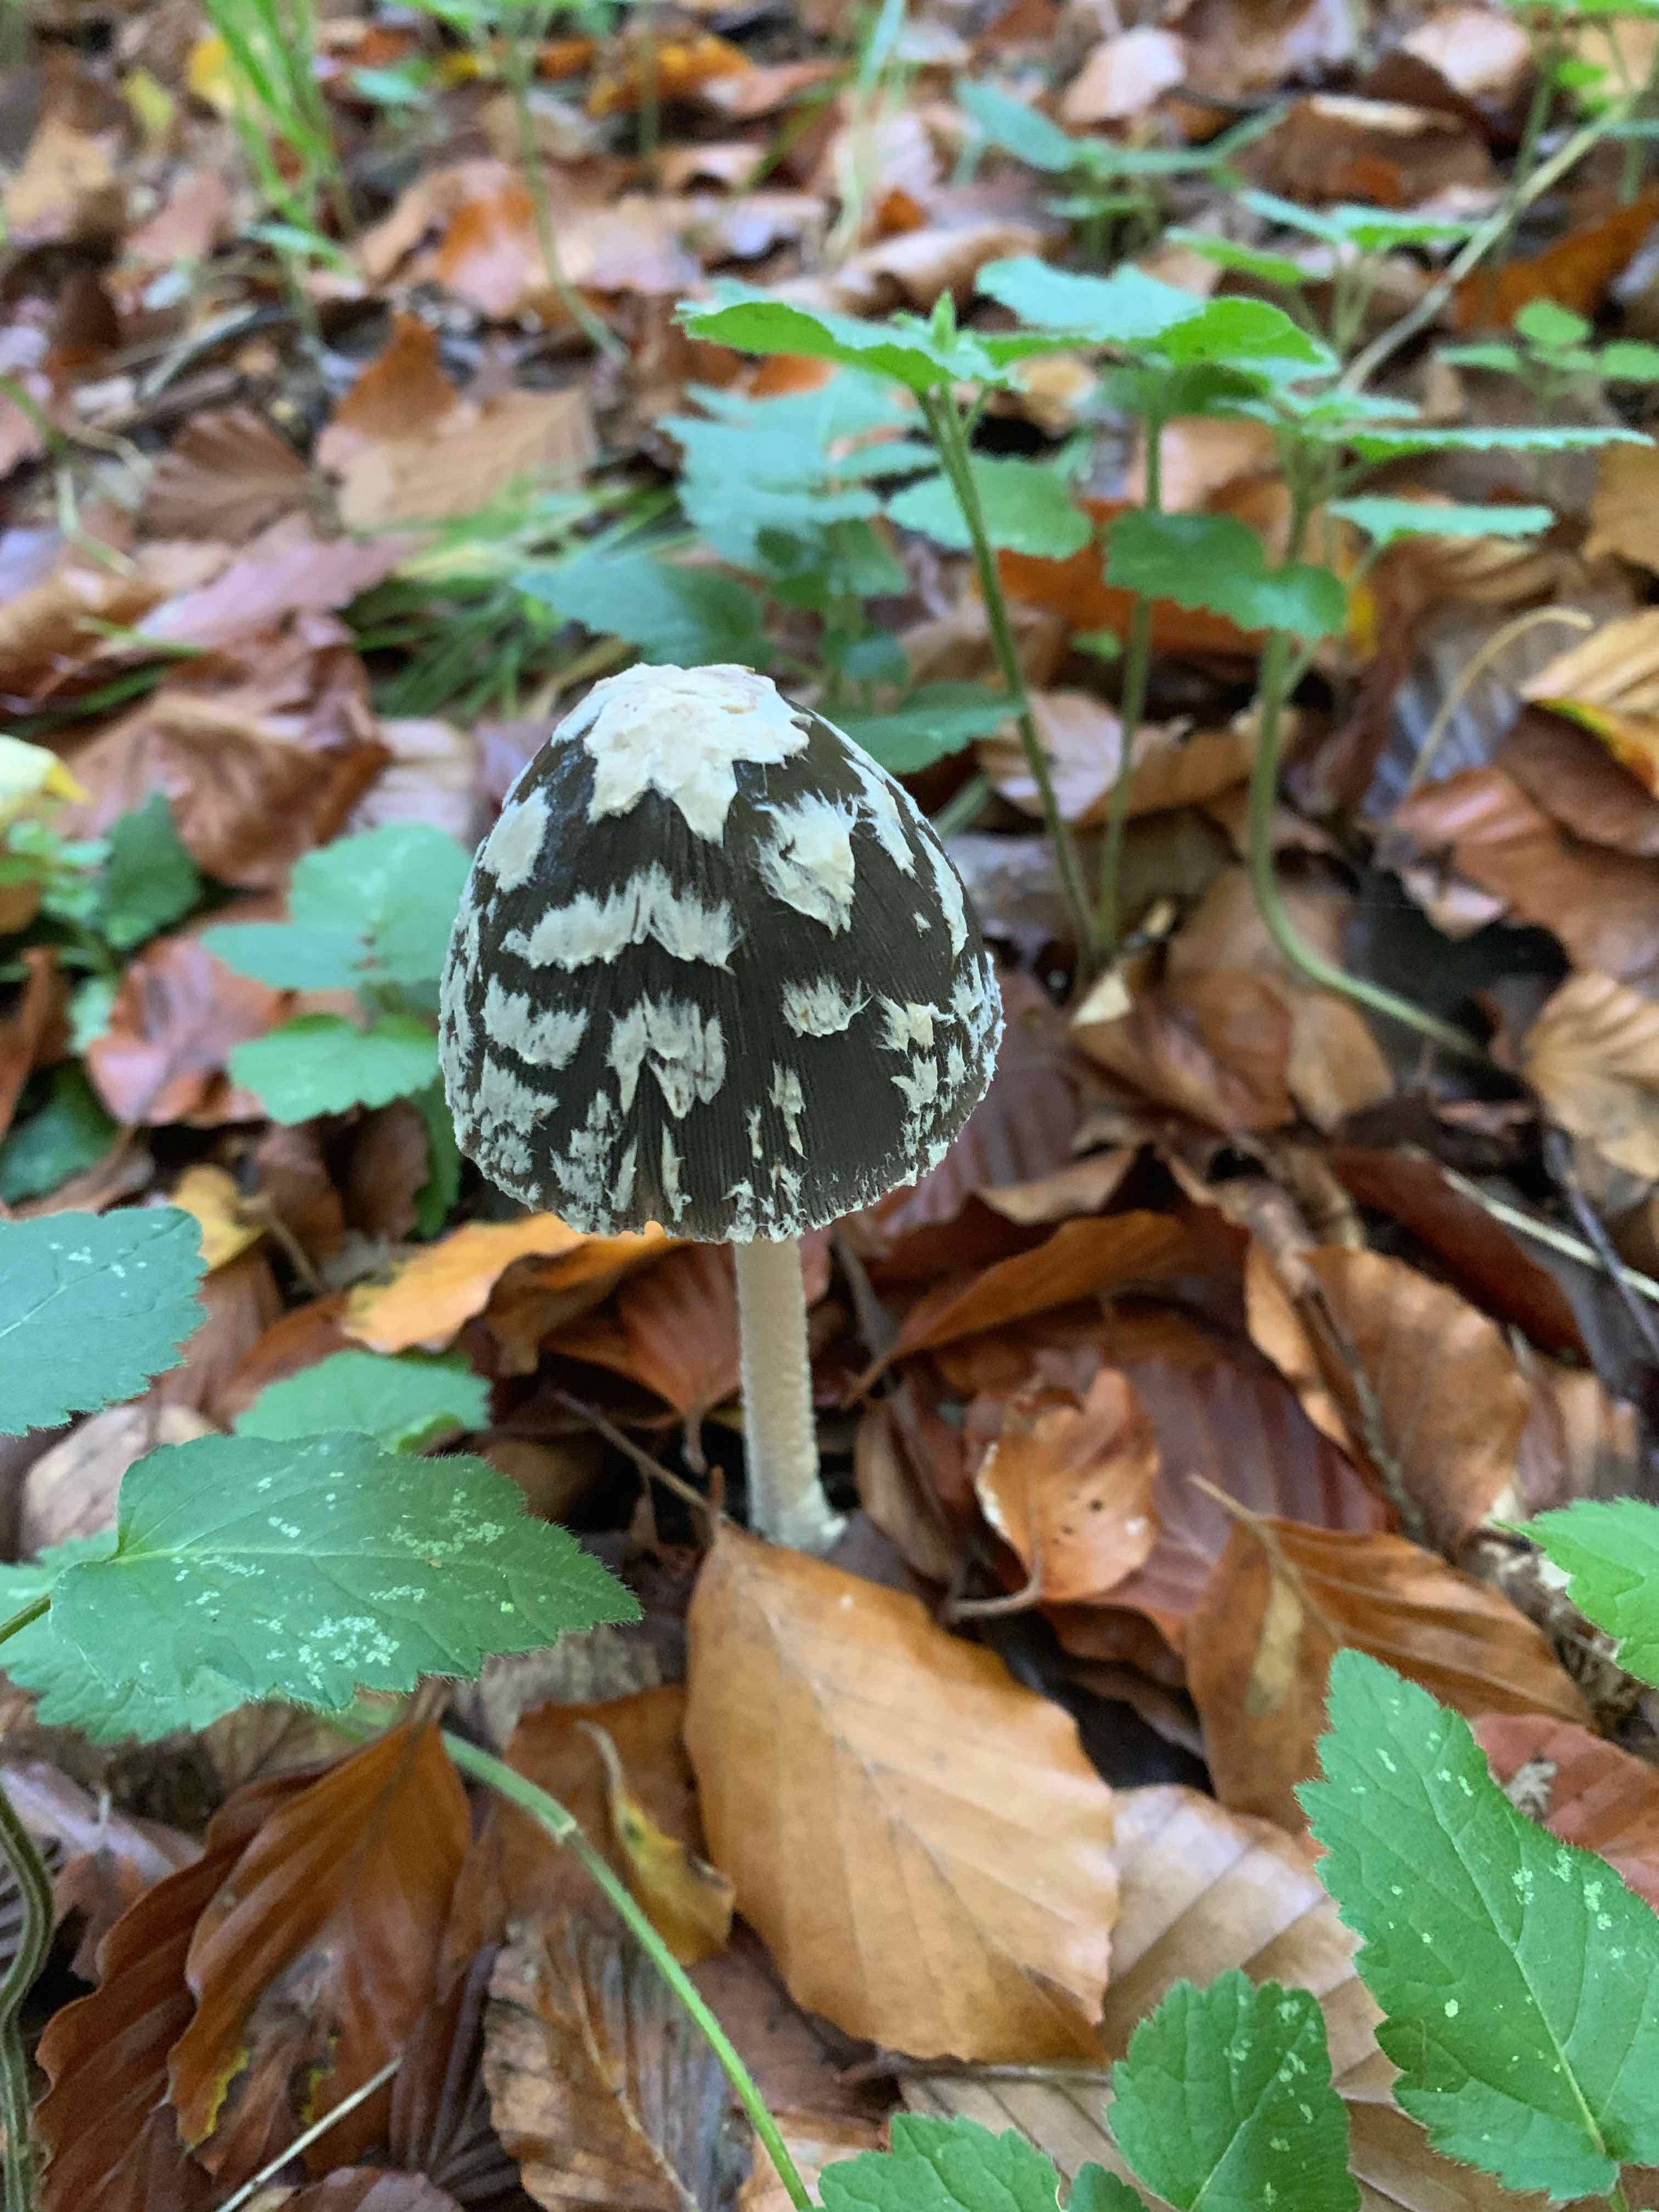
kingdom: Fungi
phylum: Basidiomycota
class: Agaricomycetes
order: Agaricales
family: Psathyrellaceae
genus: Coprinopsis
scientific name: Coprinopsis picacea
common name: skade-blækhat
